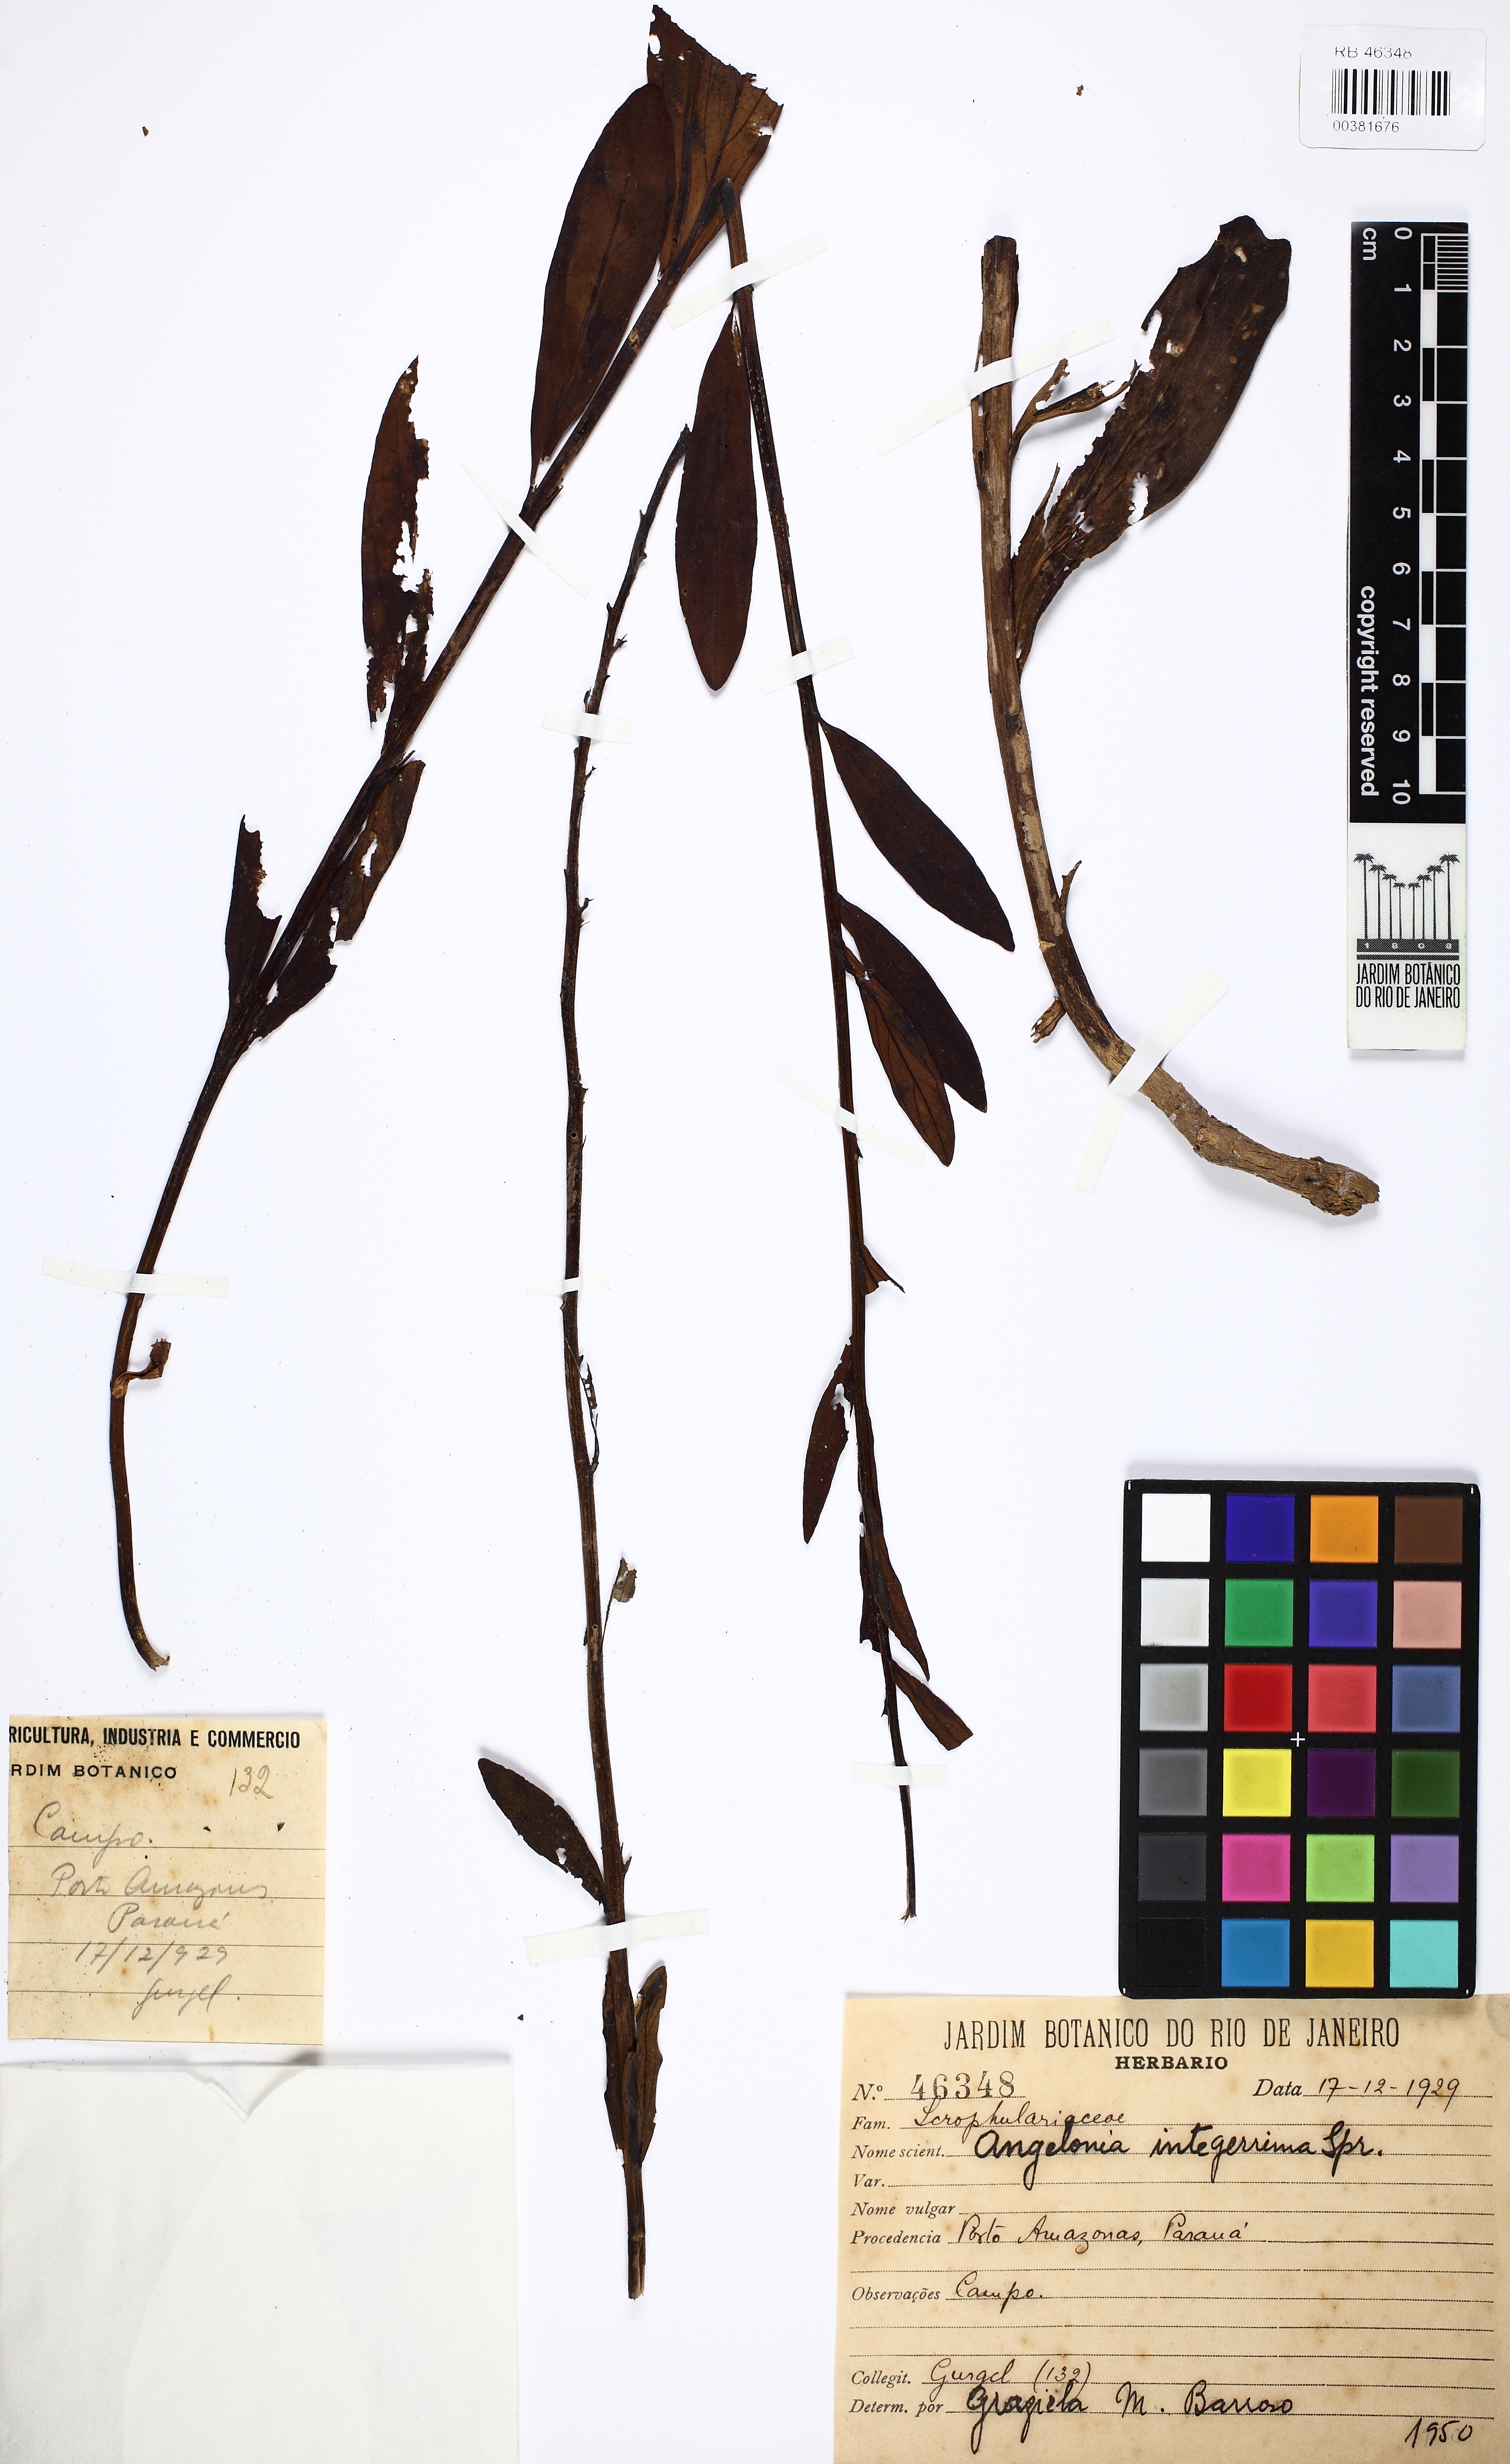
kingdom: Plantae
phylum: Tracheophyta
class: Magnoliopsida
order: Lamiales
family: Plantaginaceae
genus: Angelonia
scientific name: Angelonia integerrima
